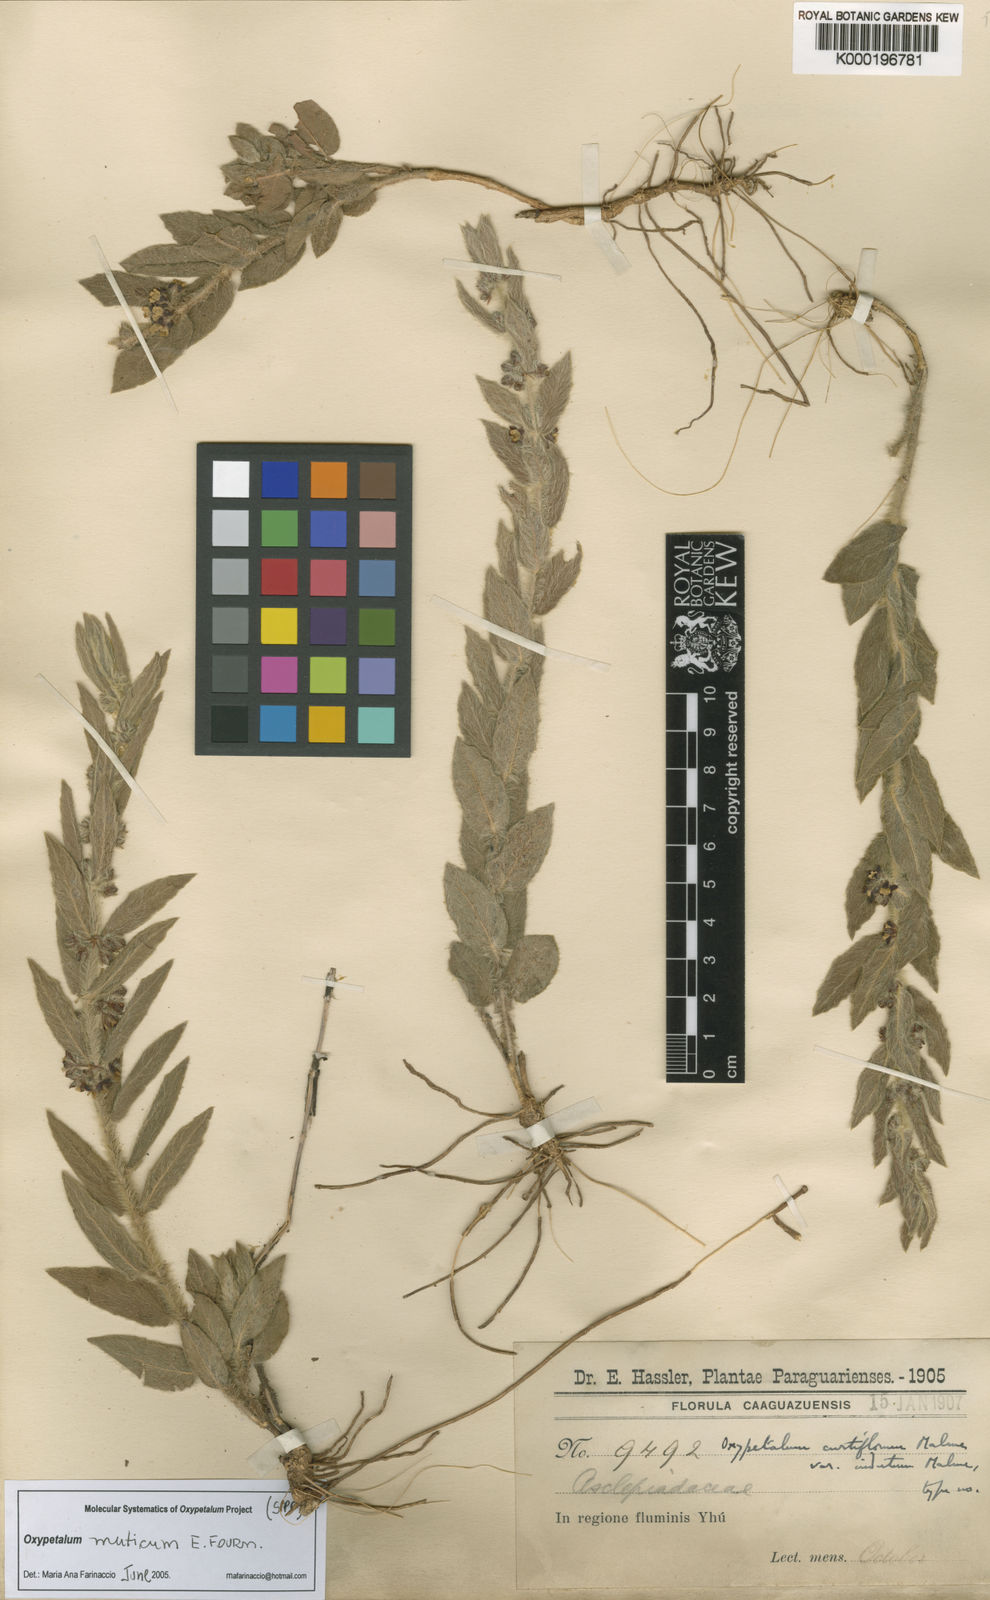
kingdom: Plantae
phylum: Tracheophyta
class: Magnoliopsida
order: Gentianales
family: Apocynaceae
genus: Oxypetalum
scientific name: Oxypetalum muticum
